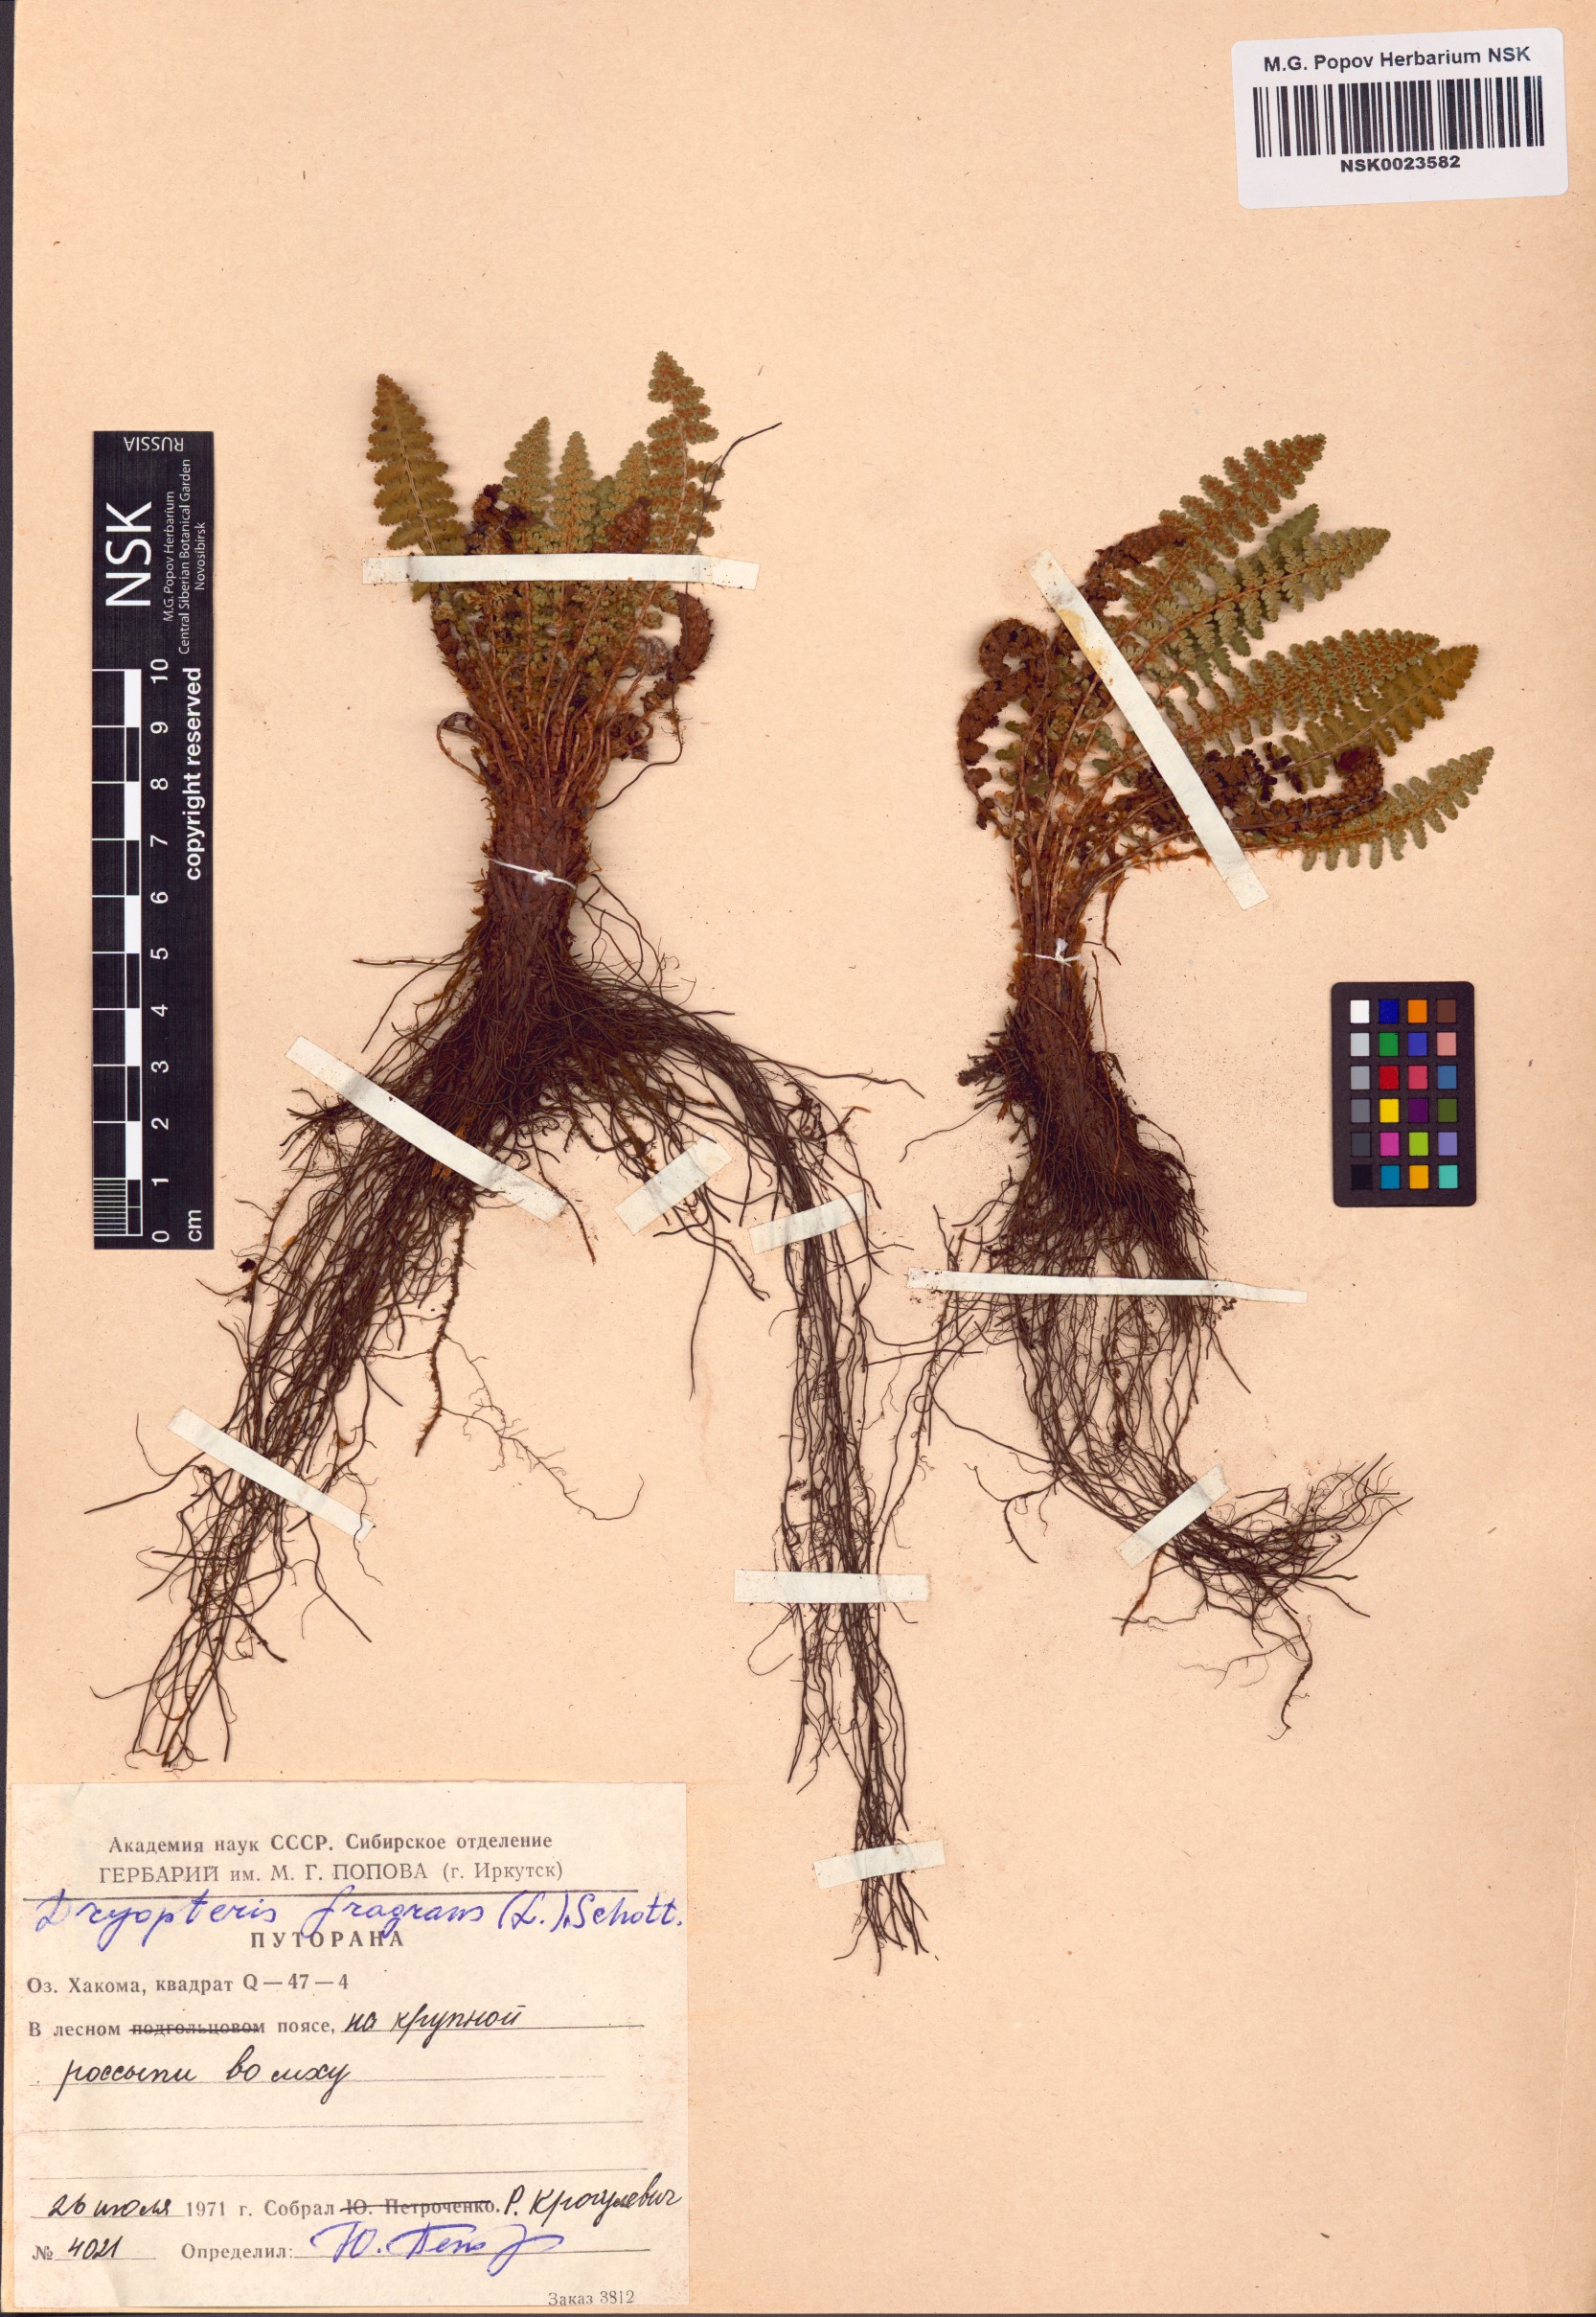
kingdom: Plantae
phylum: Tracheophyta
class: Polypodiopsida
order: Polypodiales
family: Dryopteridaceae
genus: Dryopteris
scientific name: Dryopteris fragrans
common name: Fragrant wood fern
